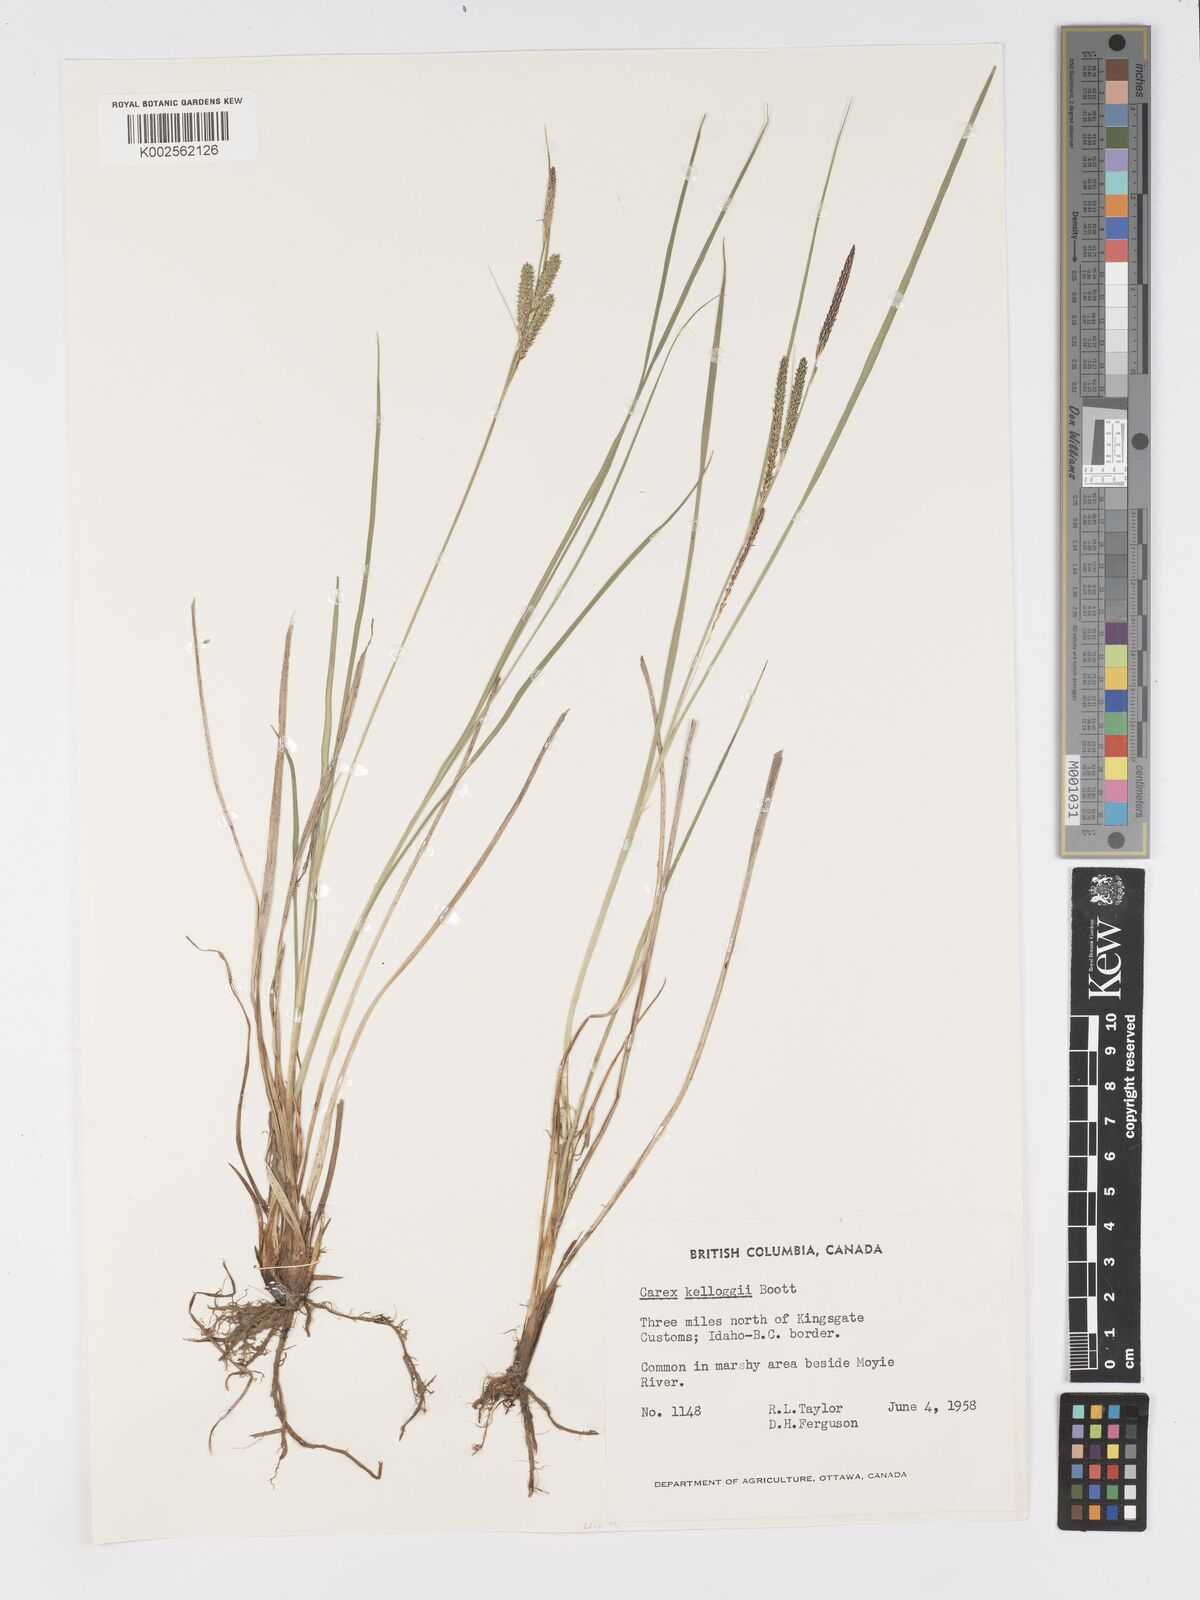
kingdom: Plantae
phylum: Tracheophyta
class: Liliopsida
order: Poales
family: Cyperaceae
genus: Carex
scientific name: Carex kelloggii
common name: Kellogg's sedge
